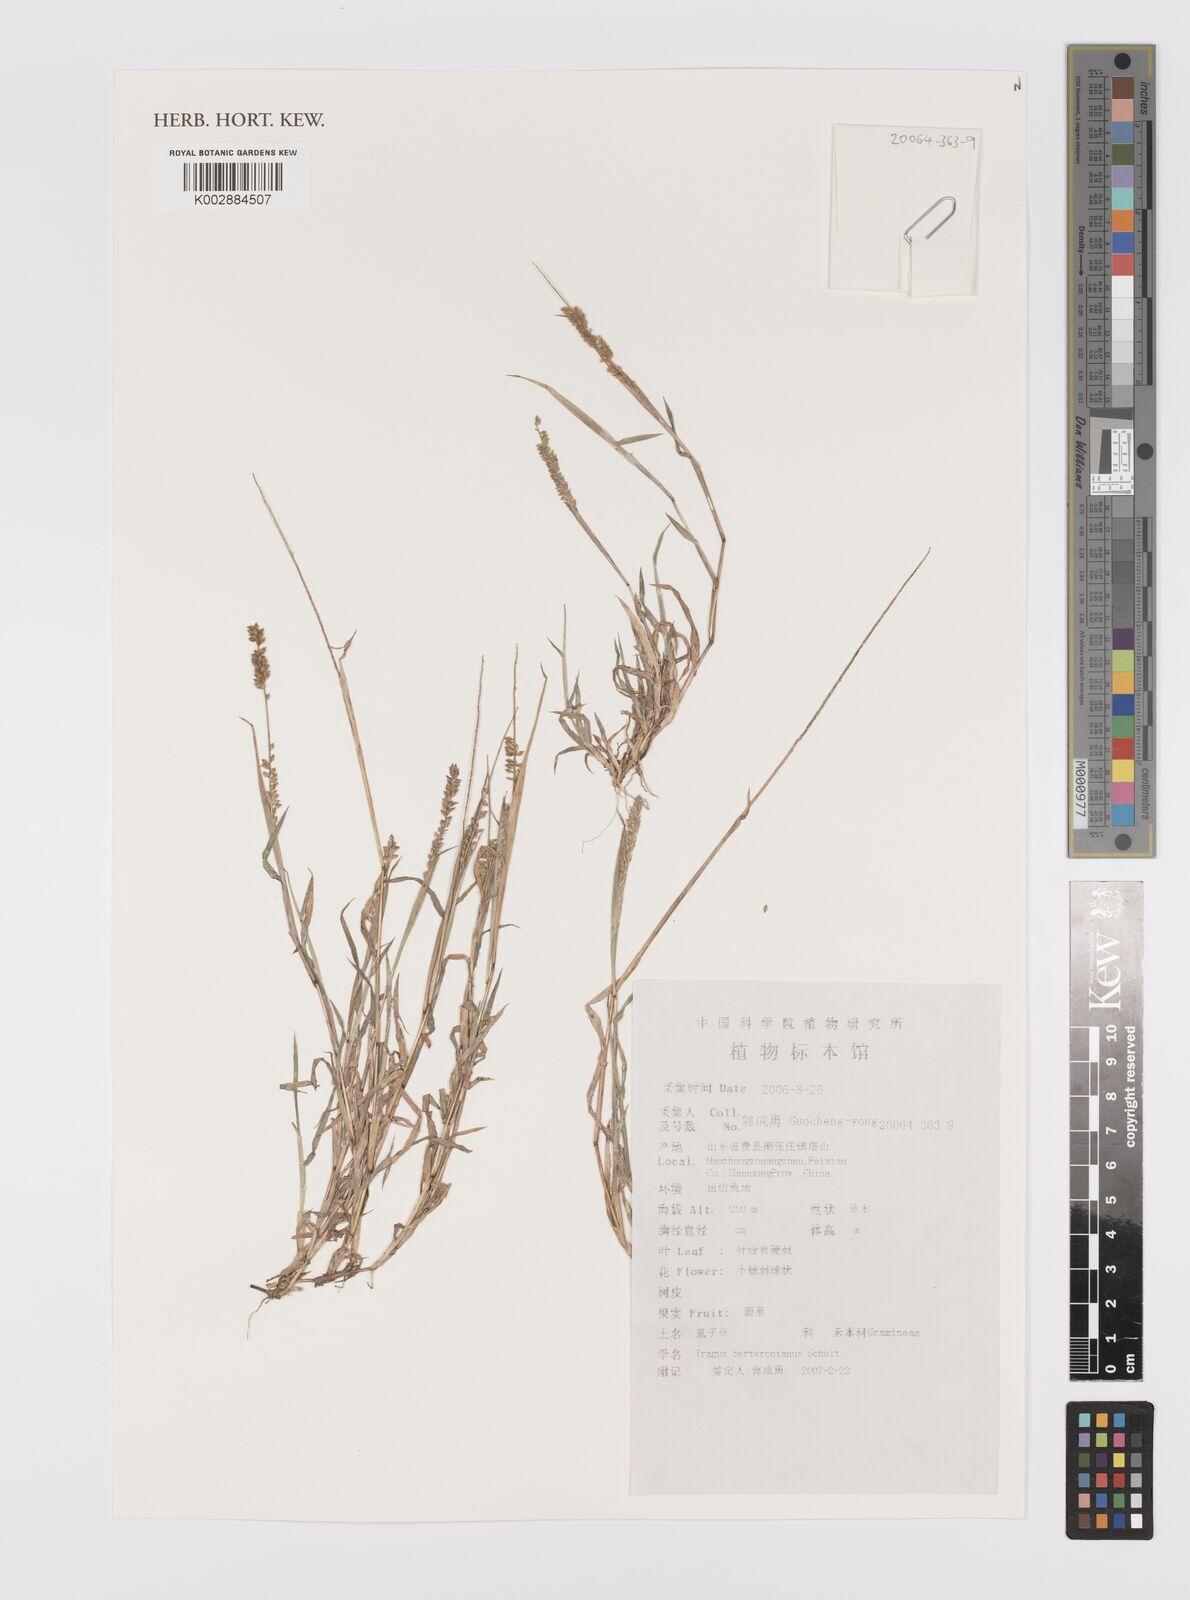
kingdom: Plantae
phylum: Tracheophyta
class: Liliopsida
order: Poales
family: Poaceae
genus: Tragus
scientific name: Tragus berteronianus
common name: African bur-grass
